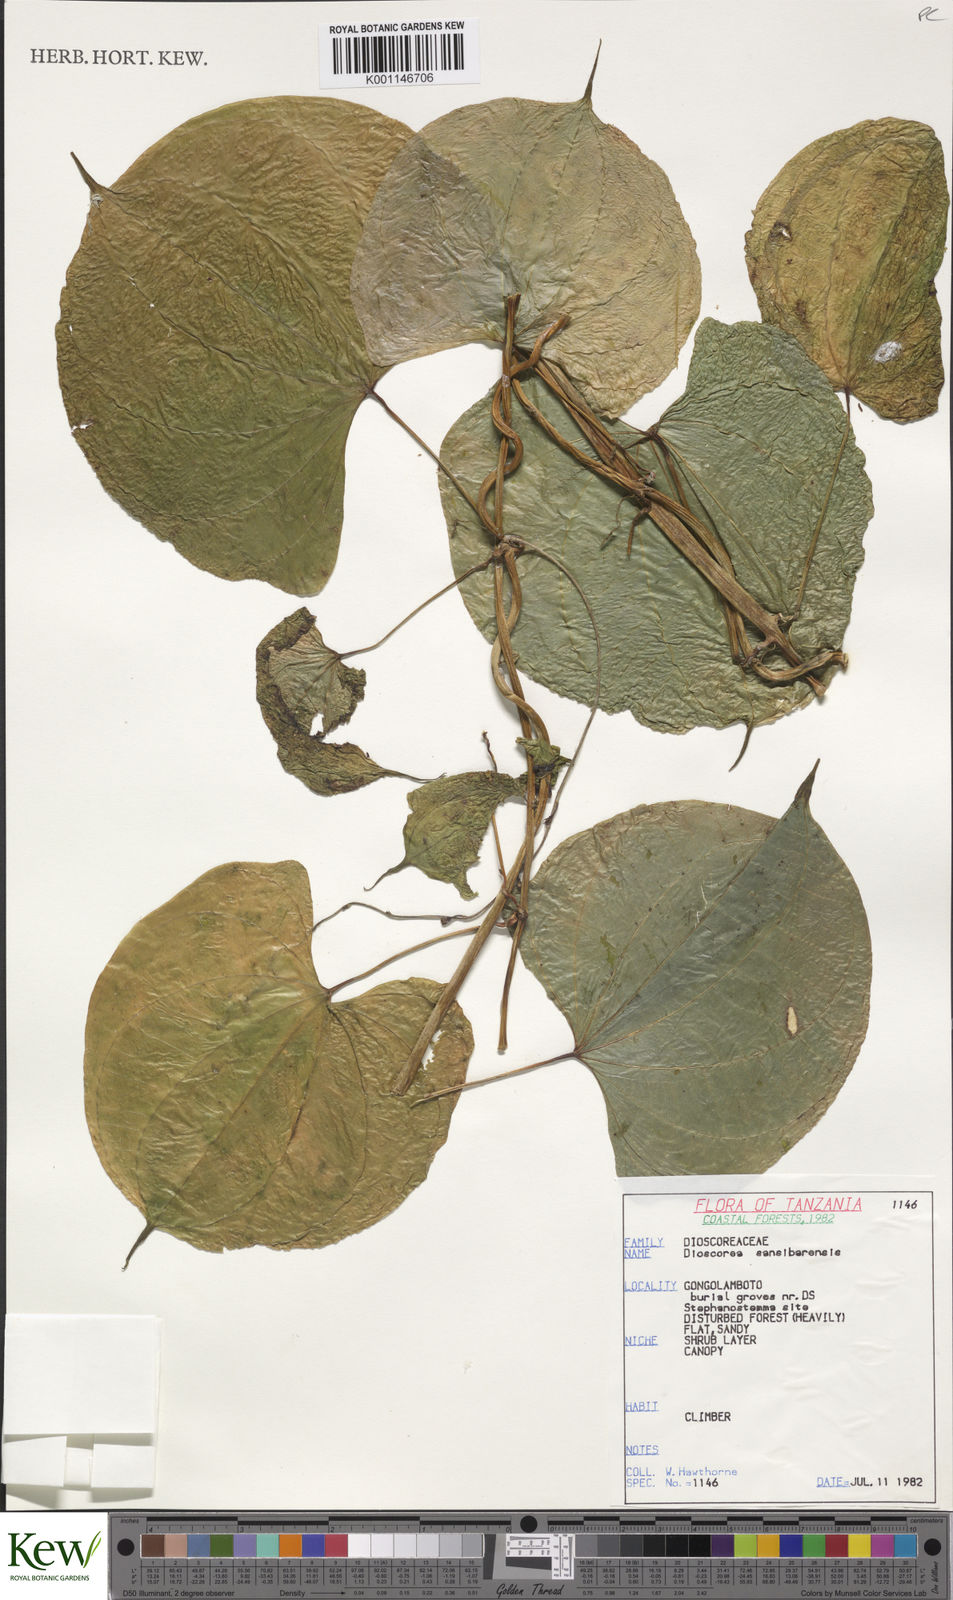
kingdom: Plantae
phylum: Tracheophyta
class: Liliopsida
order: Dioscoreales
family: Dioscoreaceae
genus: Dioscorea
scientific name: Dioscorea sansibarensis
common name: Zanzibar yam
